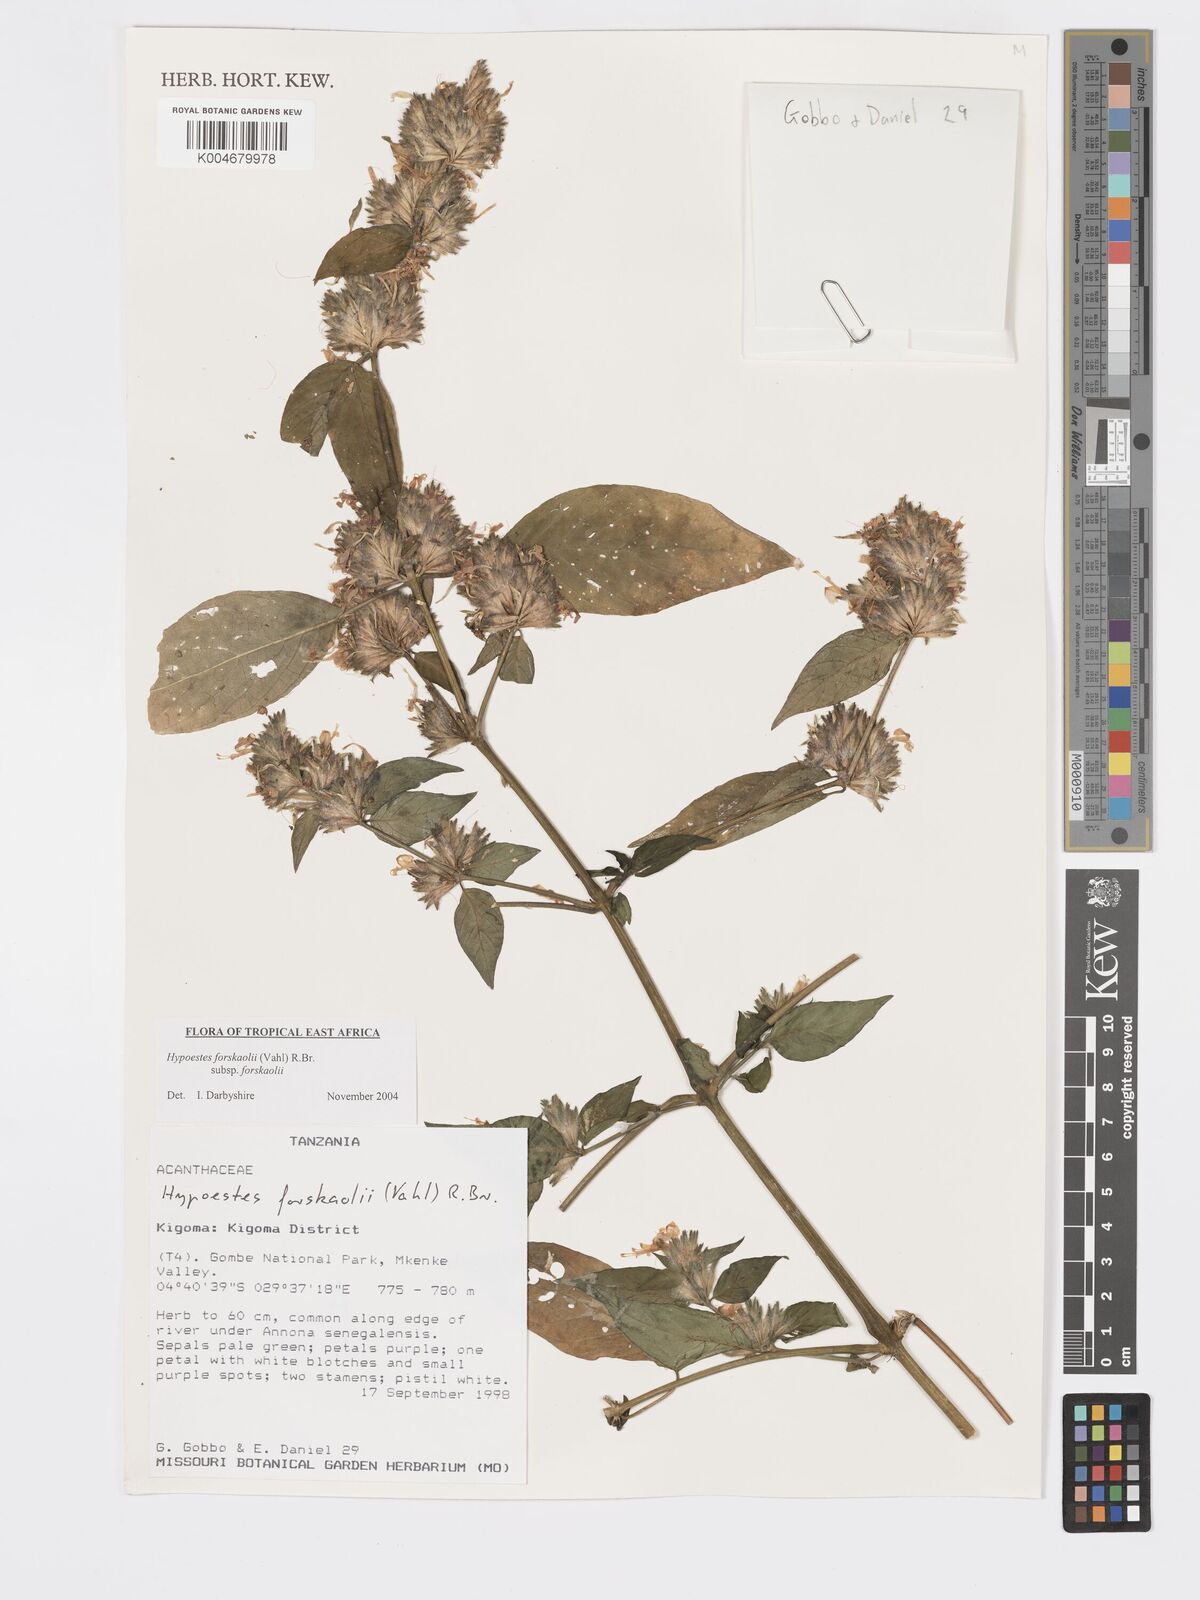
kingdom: Plantae
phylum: Tracheophyta
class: Magnoliopsida
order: Lamiales
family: Acanthaceae
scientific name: Acanthaceae
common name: Acanthaceae
